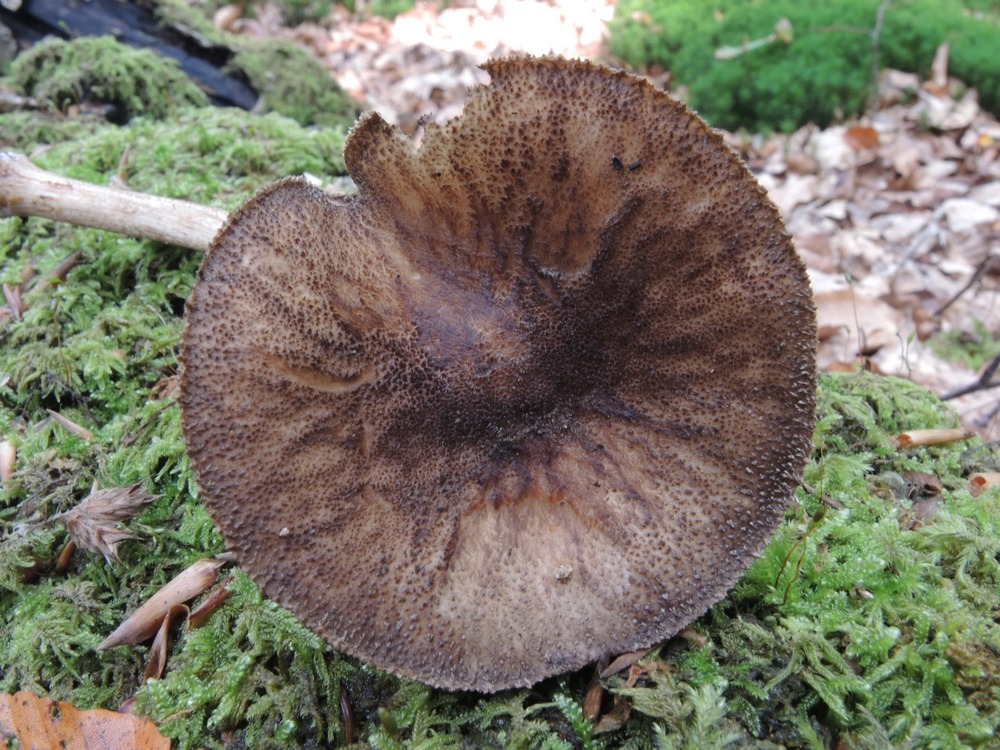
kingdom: Fungi
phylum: Basidiomycota
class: Agaricomycetes
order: Agaricales
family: Pluteaceae
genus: Pluteus
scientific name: Pluteus umbrosus
